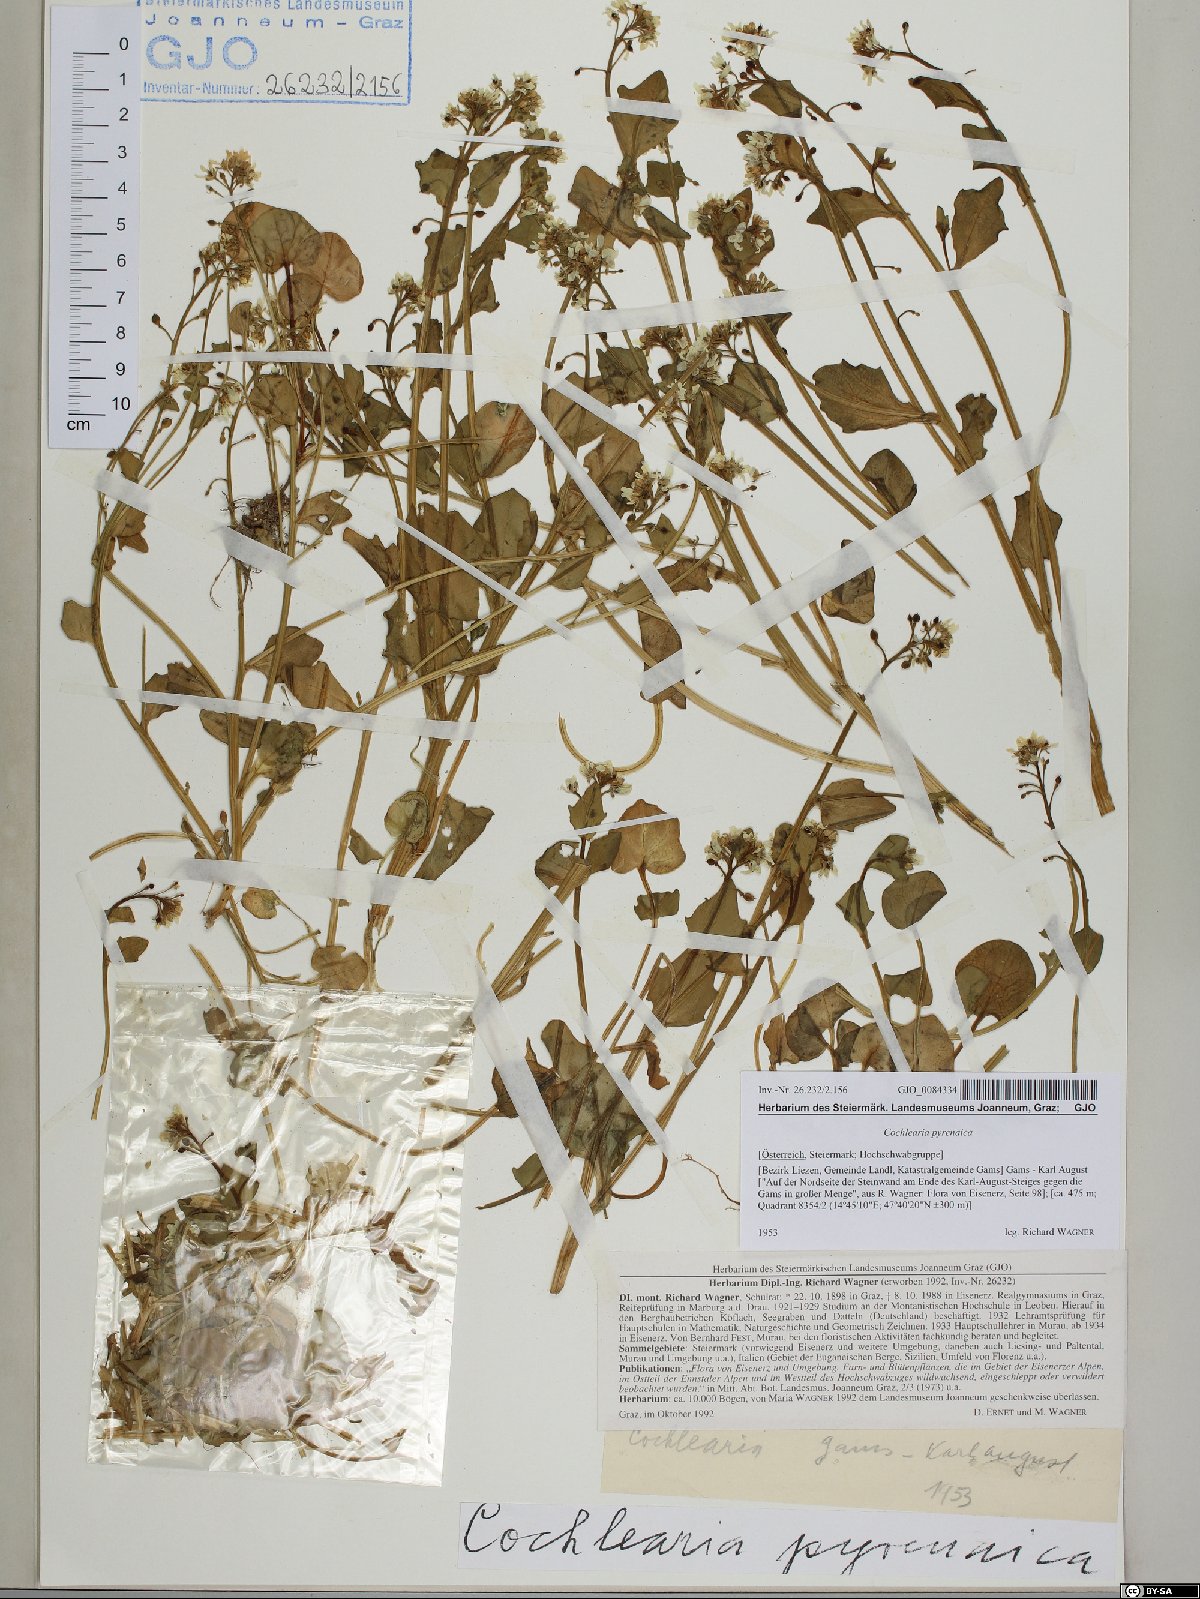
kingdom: Plantae
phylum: Tracheophyta
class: Magnoliopsida
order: Brassicales
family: Brassicaceae
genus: Cochlearia
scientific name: Cochlearia pyrenaica
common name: Upland scurvy-grass
